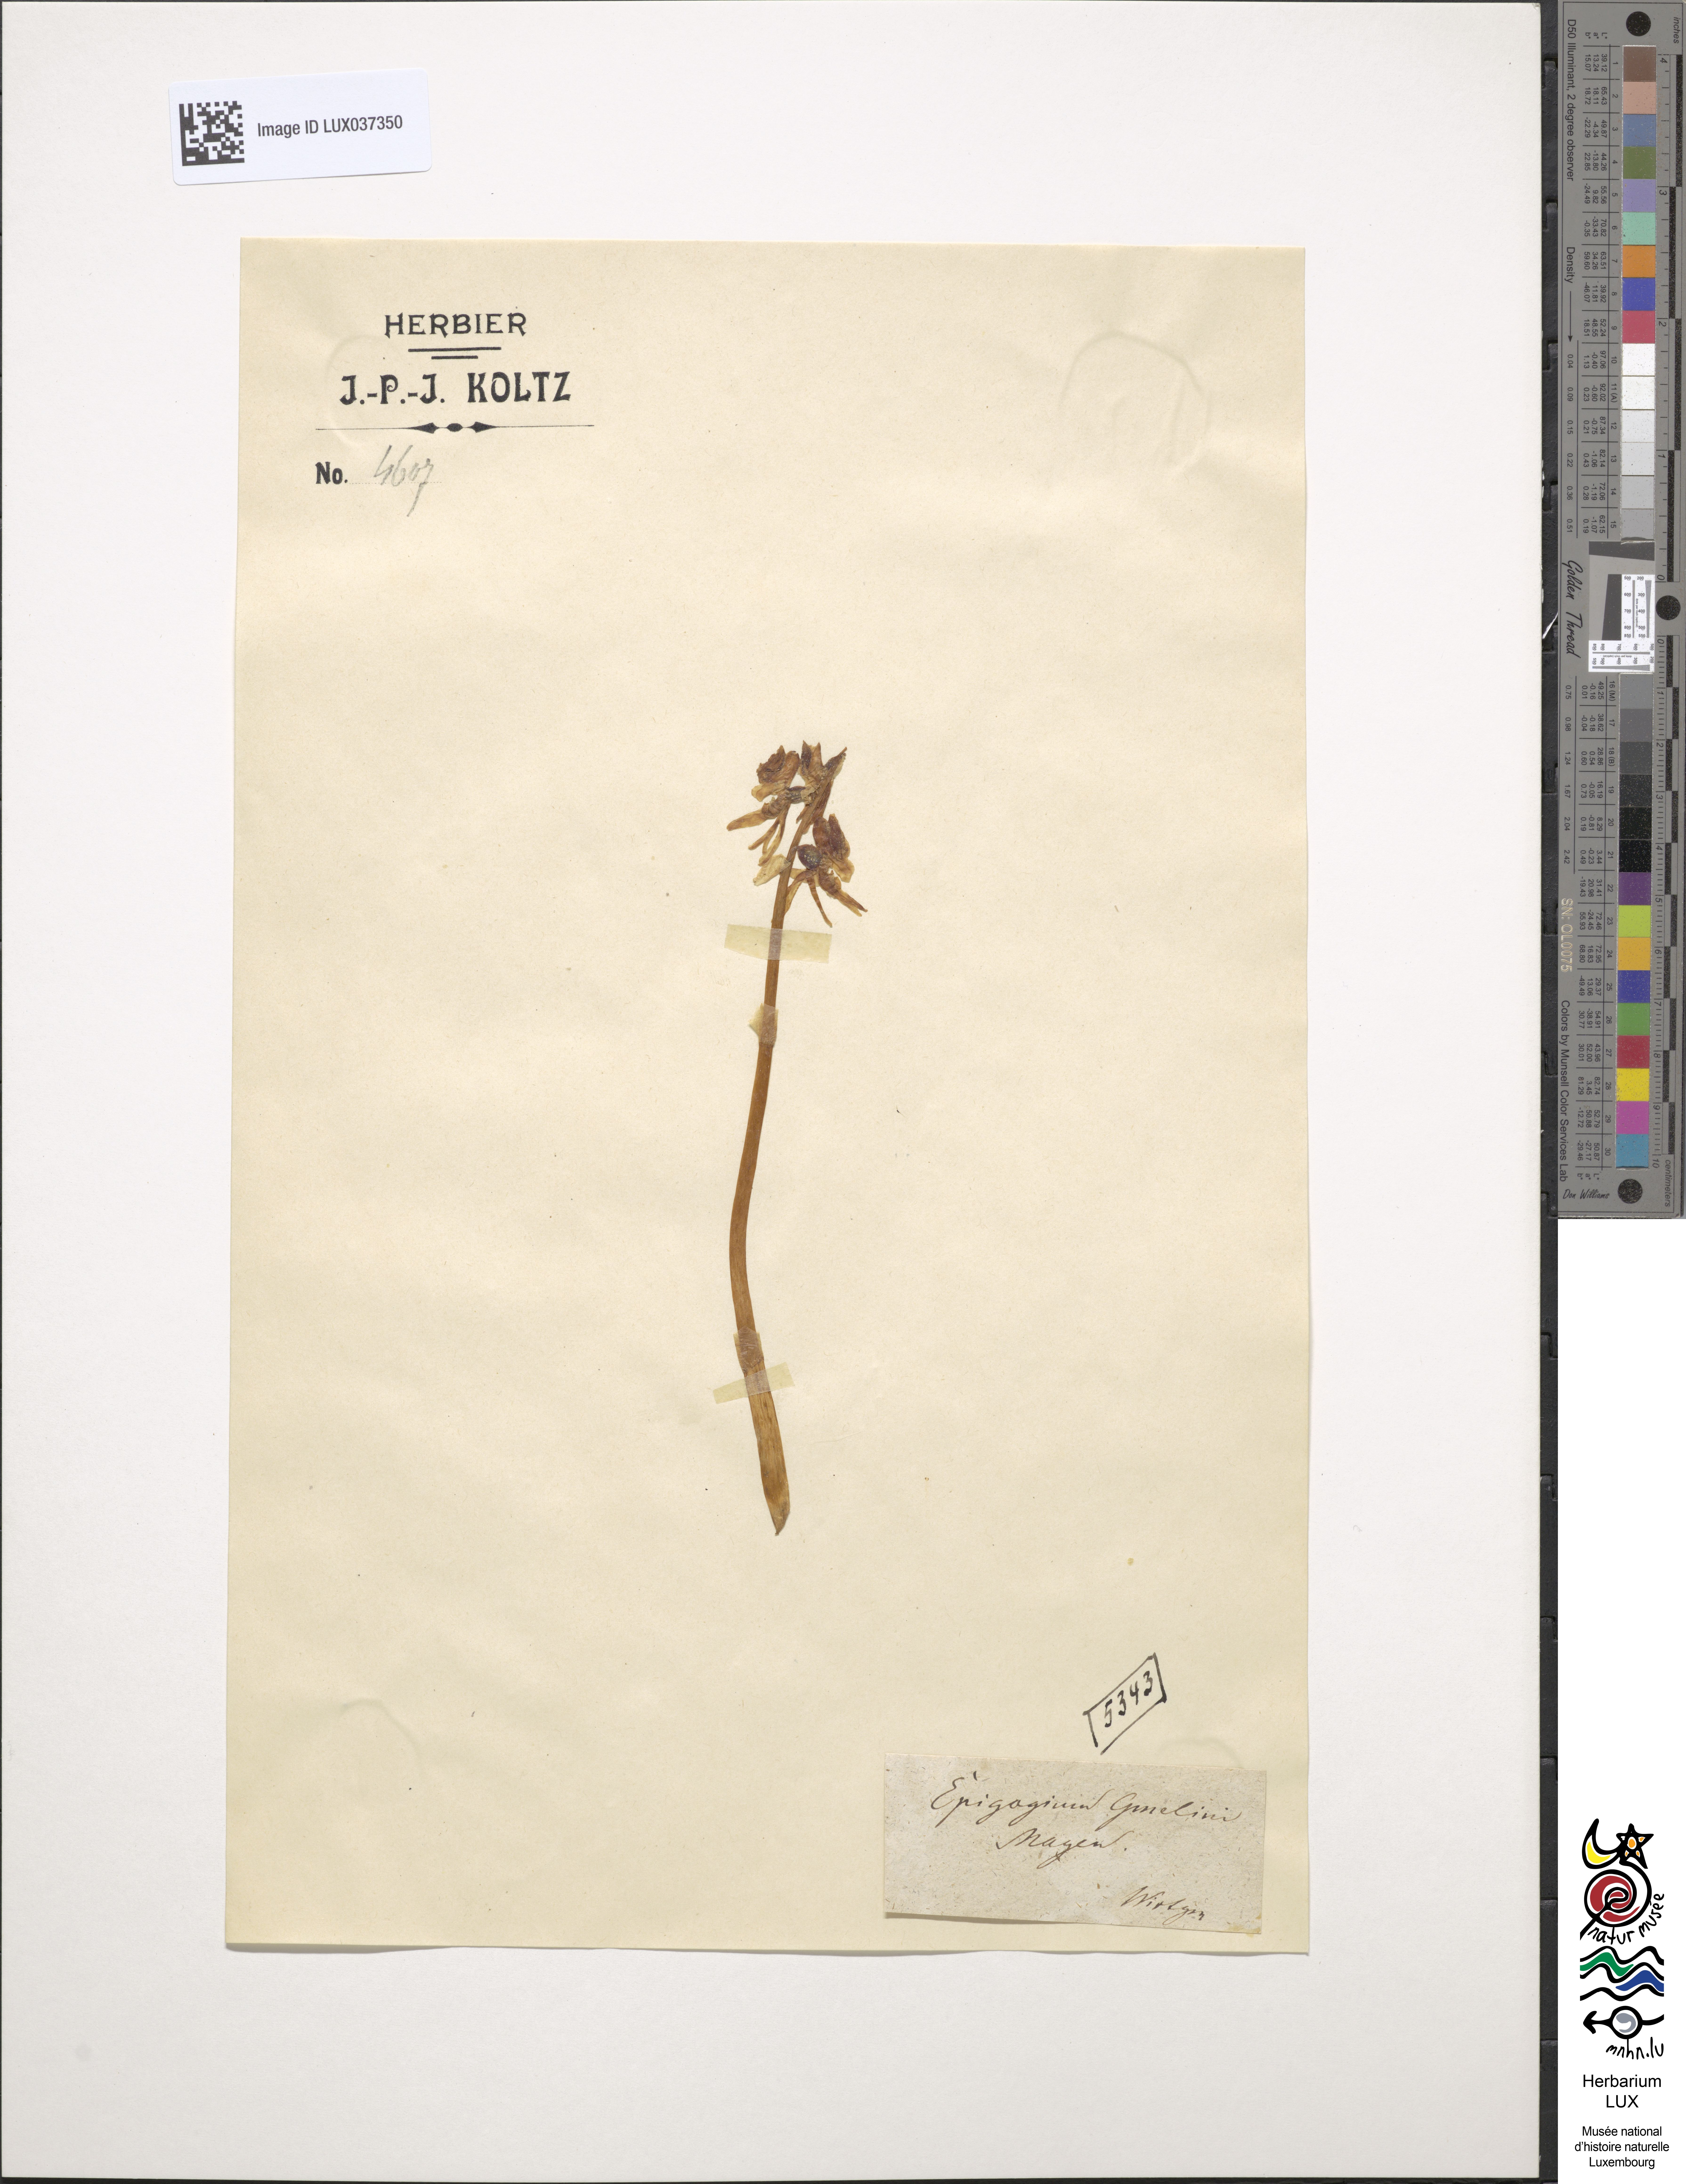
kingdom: Plantae
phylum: Tracheophyta
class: Liliopsida
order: Asparagales
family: Orchidaceae
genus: Epipogium
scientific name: Epipogium aphyllum
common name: Ghost orchid
